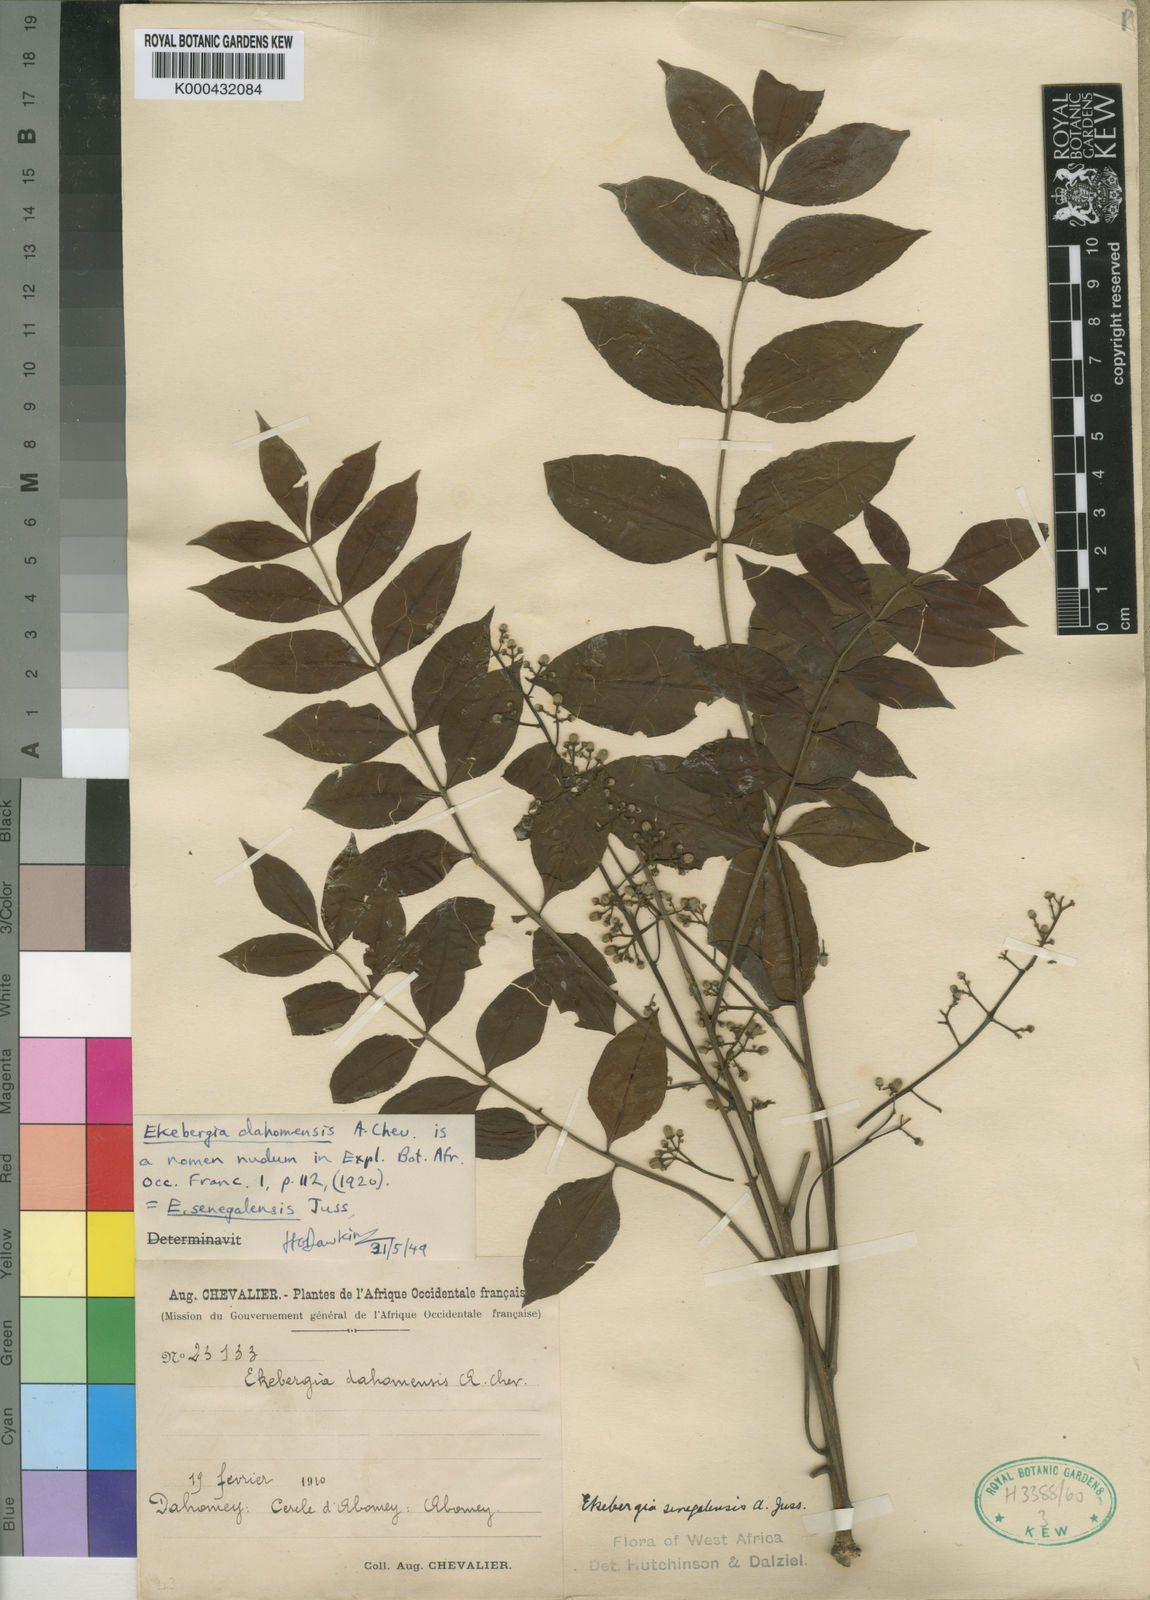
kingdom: Plantae
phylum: Tracheophyta
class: Magnoliopsida
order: Sapindales
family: Meliaceae
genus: Ekebergia
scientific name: Ekebergia capensis
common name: Cape-ash
